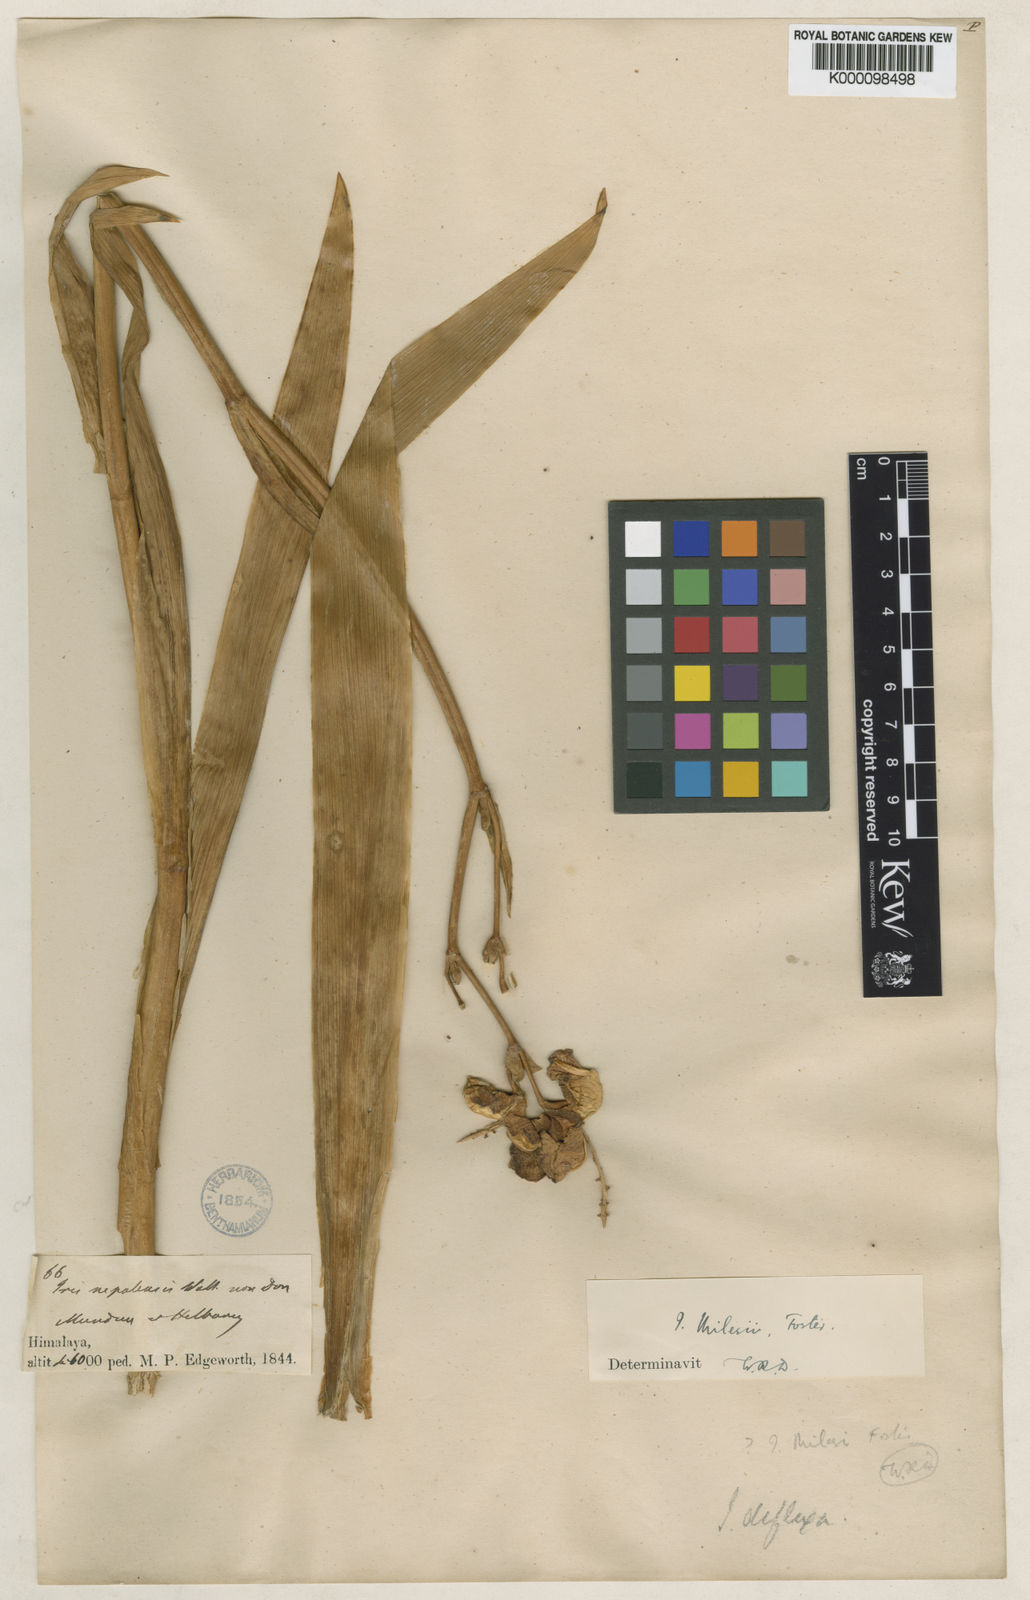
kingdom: Plantae
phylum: Tracheophyta
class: Liliopsida
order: Asparagales
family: Iridaceae
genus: Iris
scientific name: Iris milesii
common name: Red-flower iris
